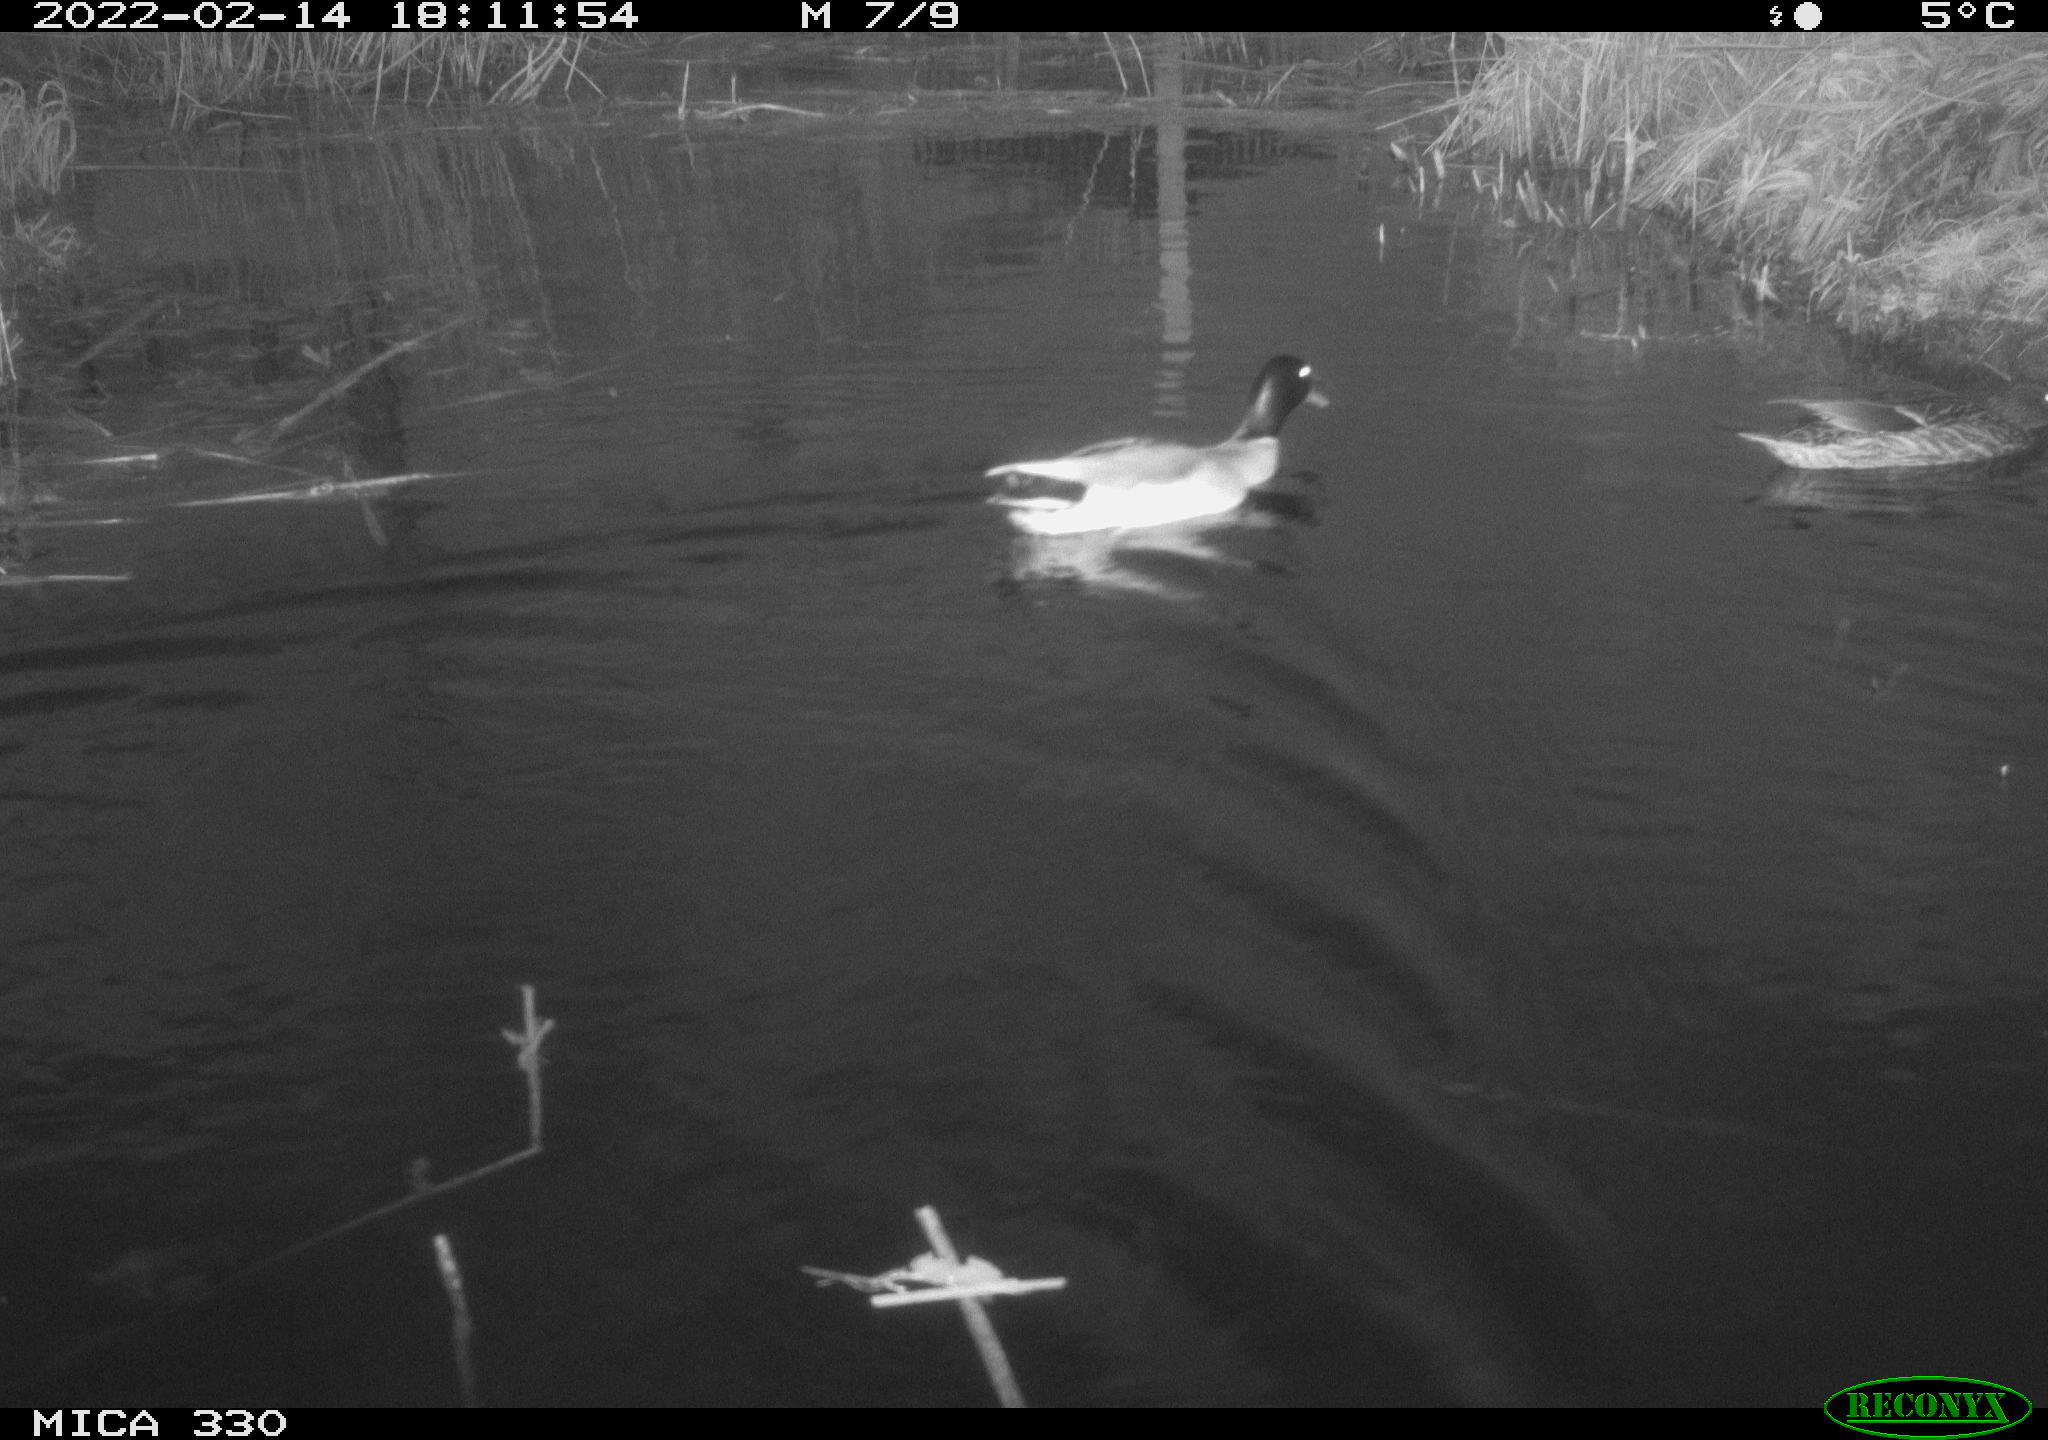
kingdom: Animalia
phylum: Chordata
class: Aves
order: Anseriformes
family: Anatidae
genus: Anas
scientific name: Anas platyrhynchos
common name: Mallard
